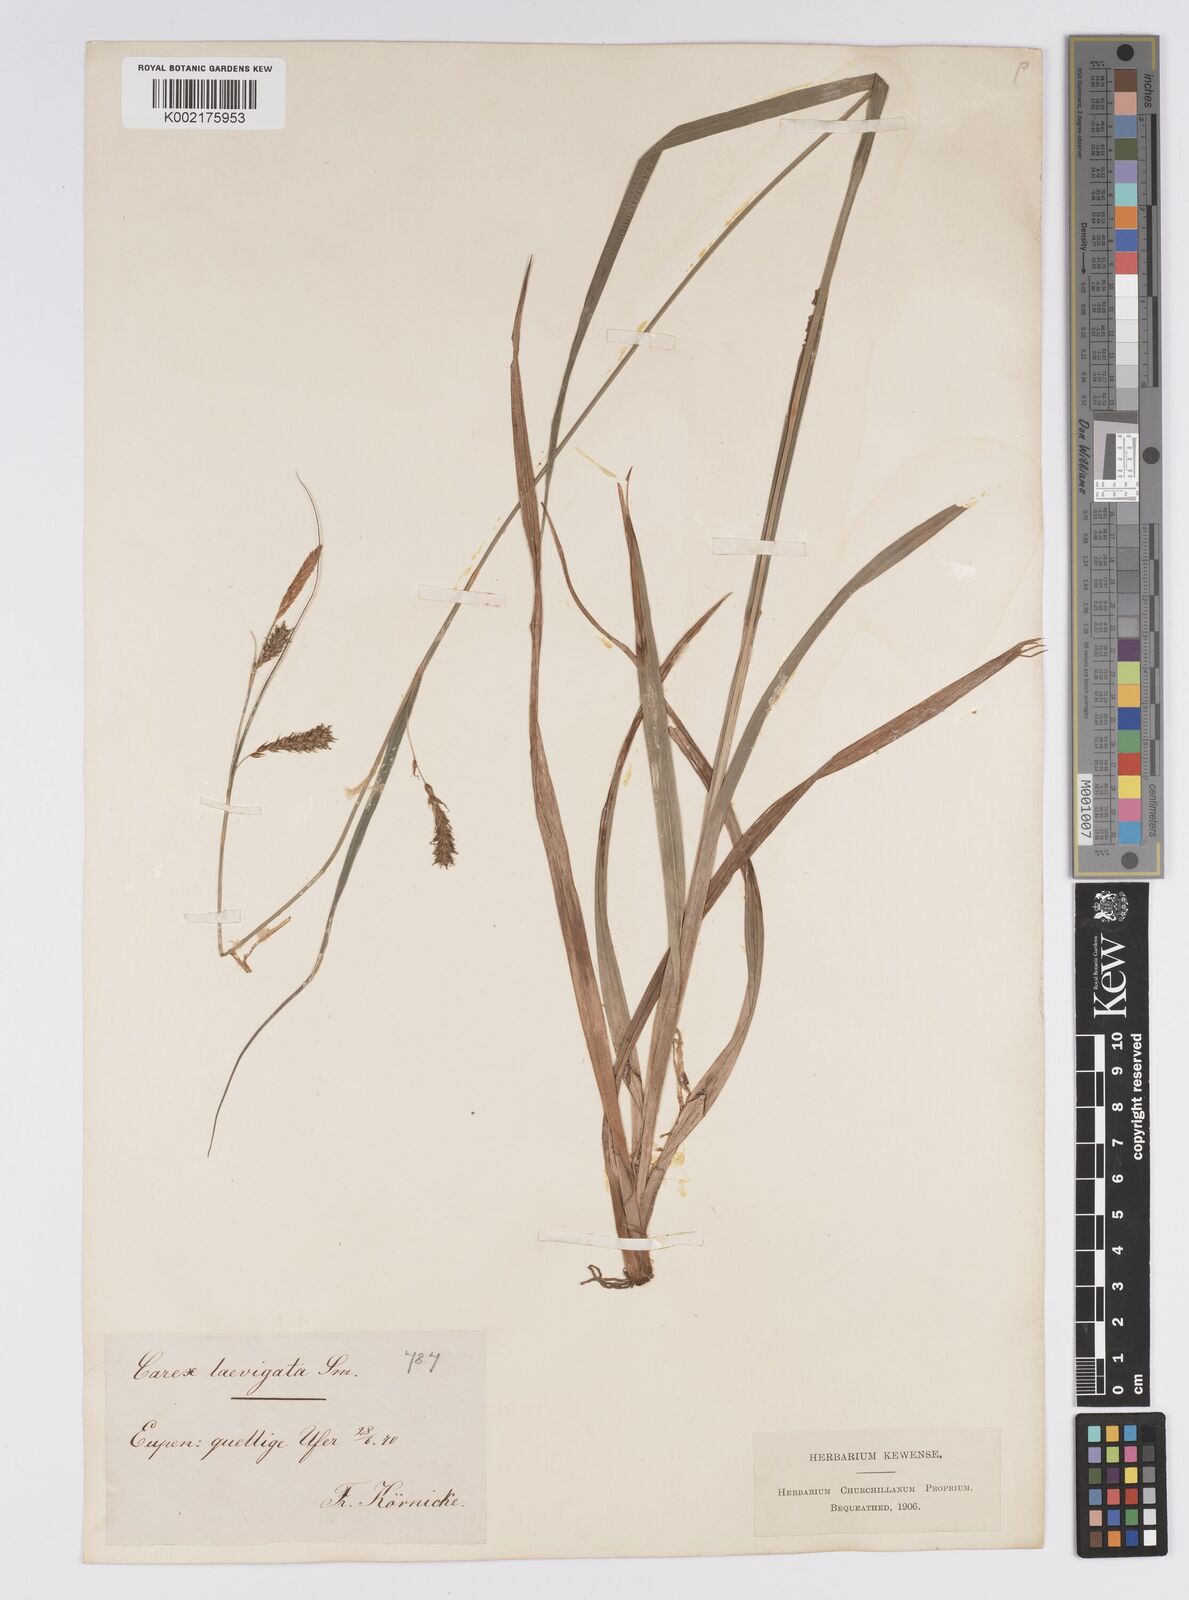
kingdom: Plantae
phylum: Tracheophyta
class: Liliopsida
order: Poales
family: Cyperaceae
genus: Carex
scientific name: Carex laevigata
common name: Smooth-stalked sedge
